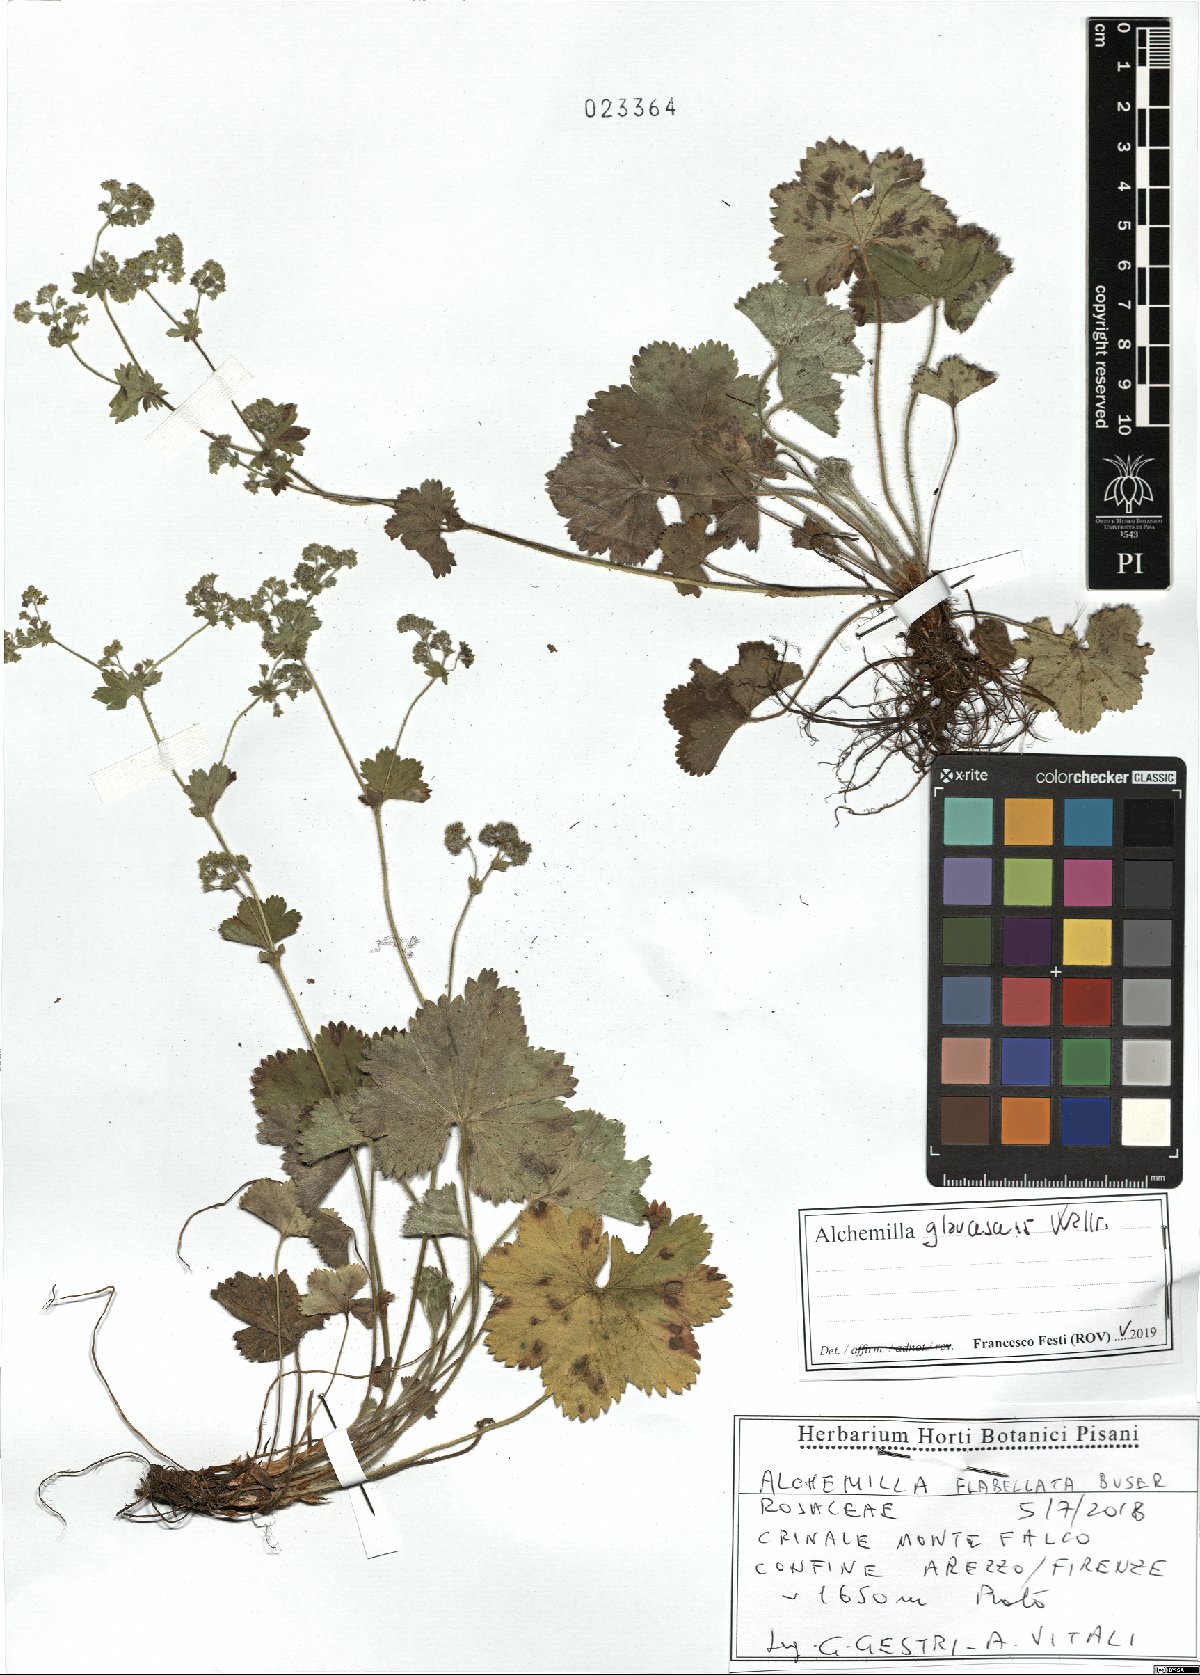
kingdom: Plantae
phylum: Tracheophyta
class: Magnoliopsida
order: Rosales
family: Rosaceae
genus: Alchemilla
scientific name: Alchemilla glaucescens
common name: Silky lady's mantle
